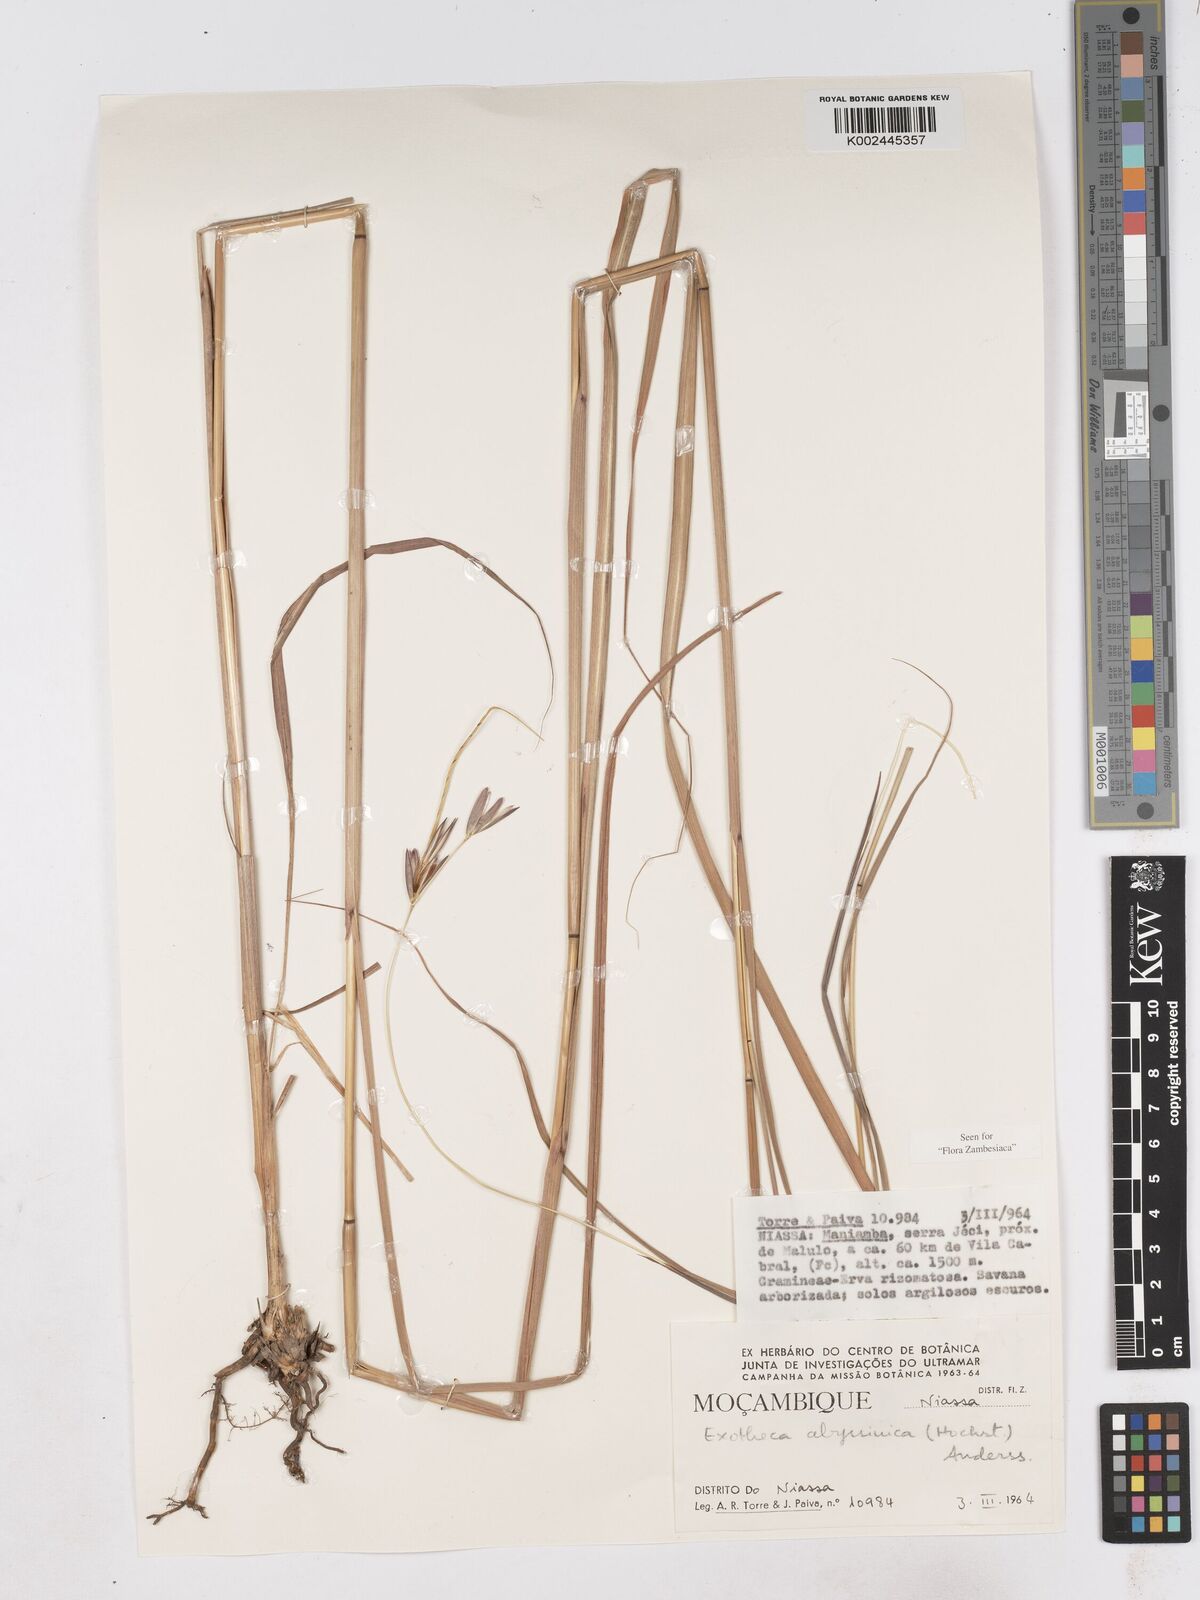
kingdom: Plantae
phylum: Tracheophyta
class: Liliopsida
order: Poales
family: Poaceae
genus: Exotheca
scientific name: Exotheca abyssinica
